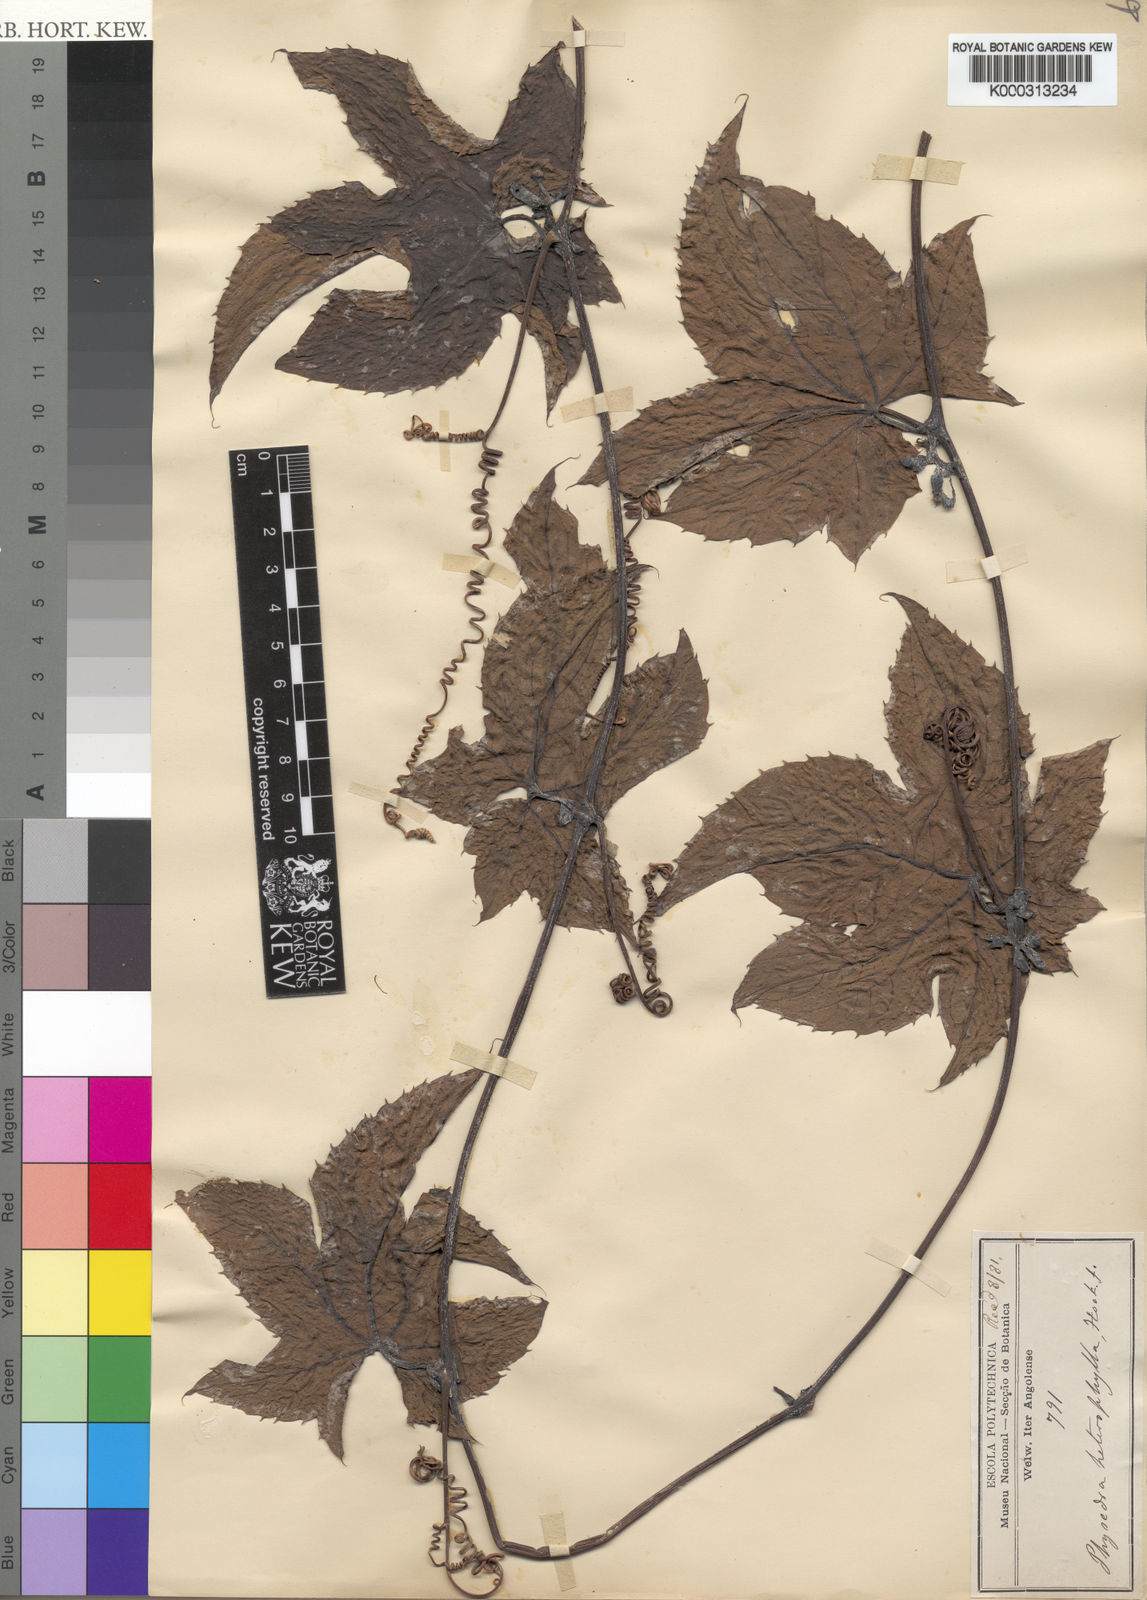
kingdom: Plantae
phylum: Tracheophyta
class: Magnoliopsida
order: Cucurbitales
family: Cucurbitaceae
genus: Coccinia
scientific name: Coccinia heterophylla
